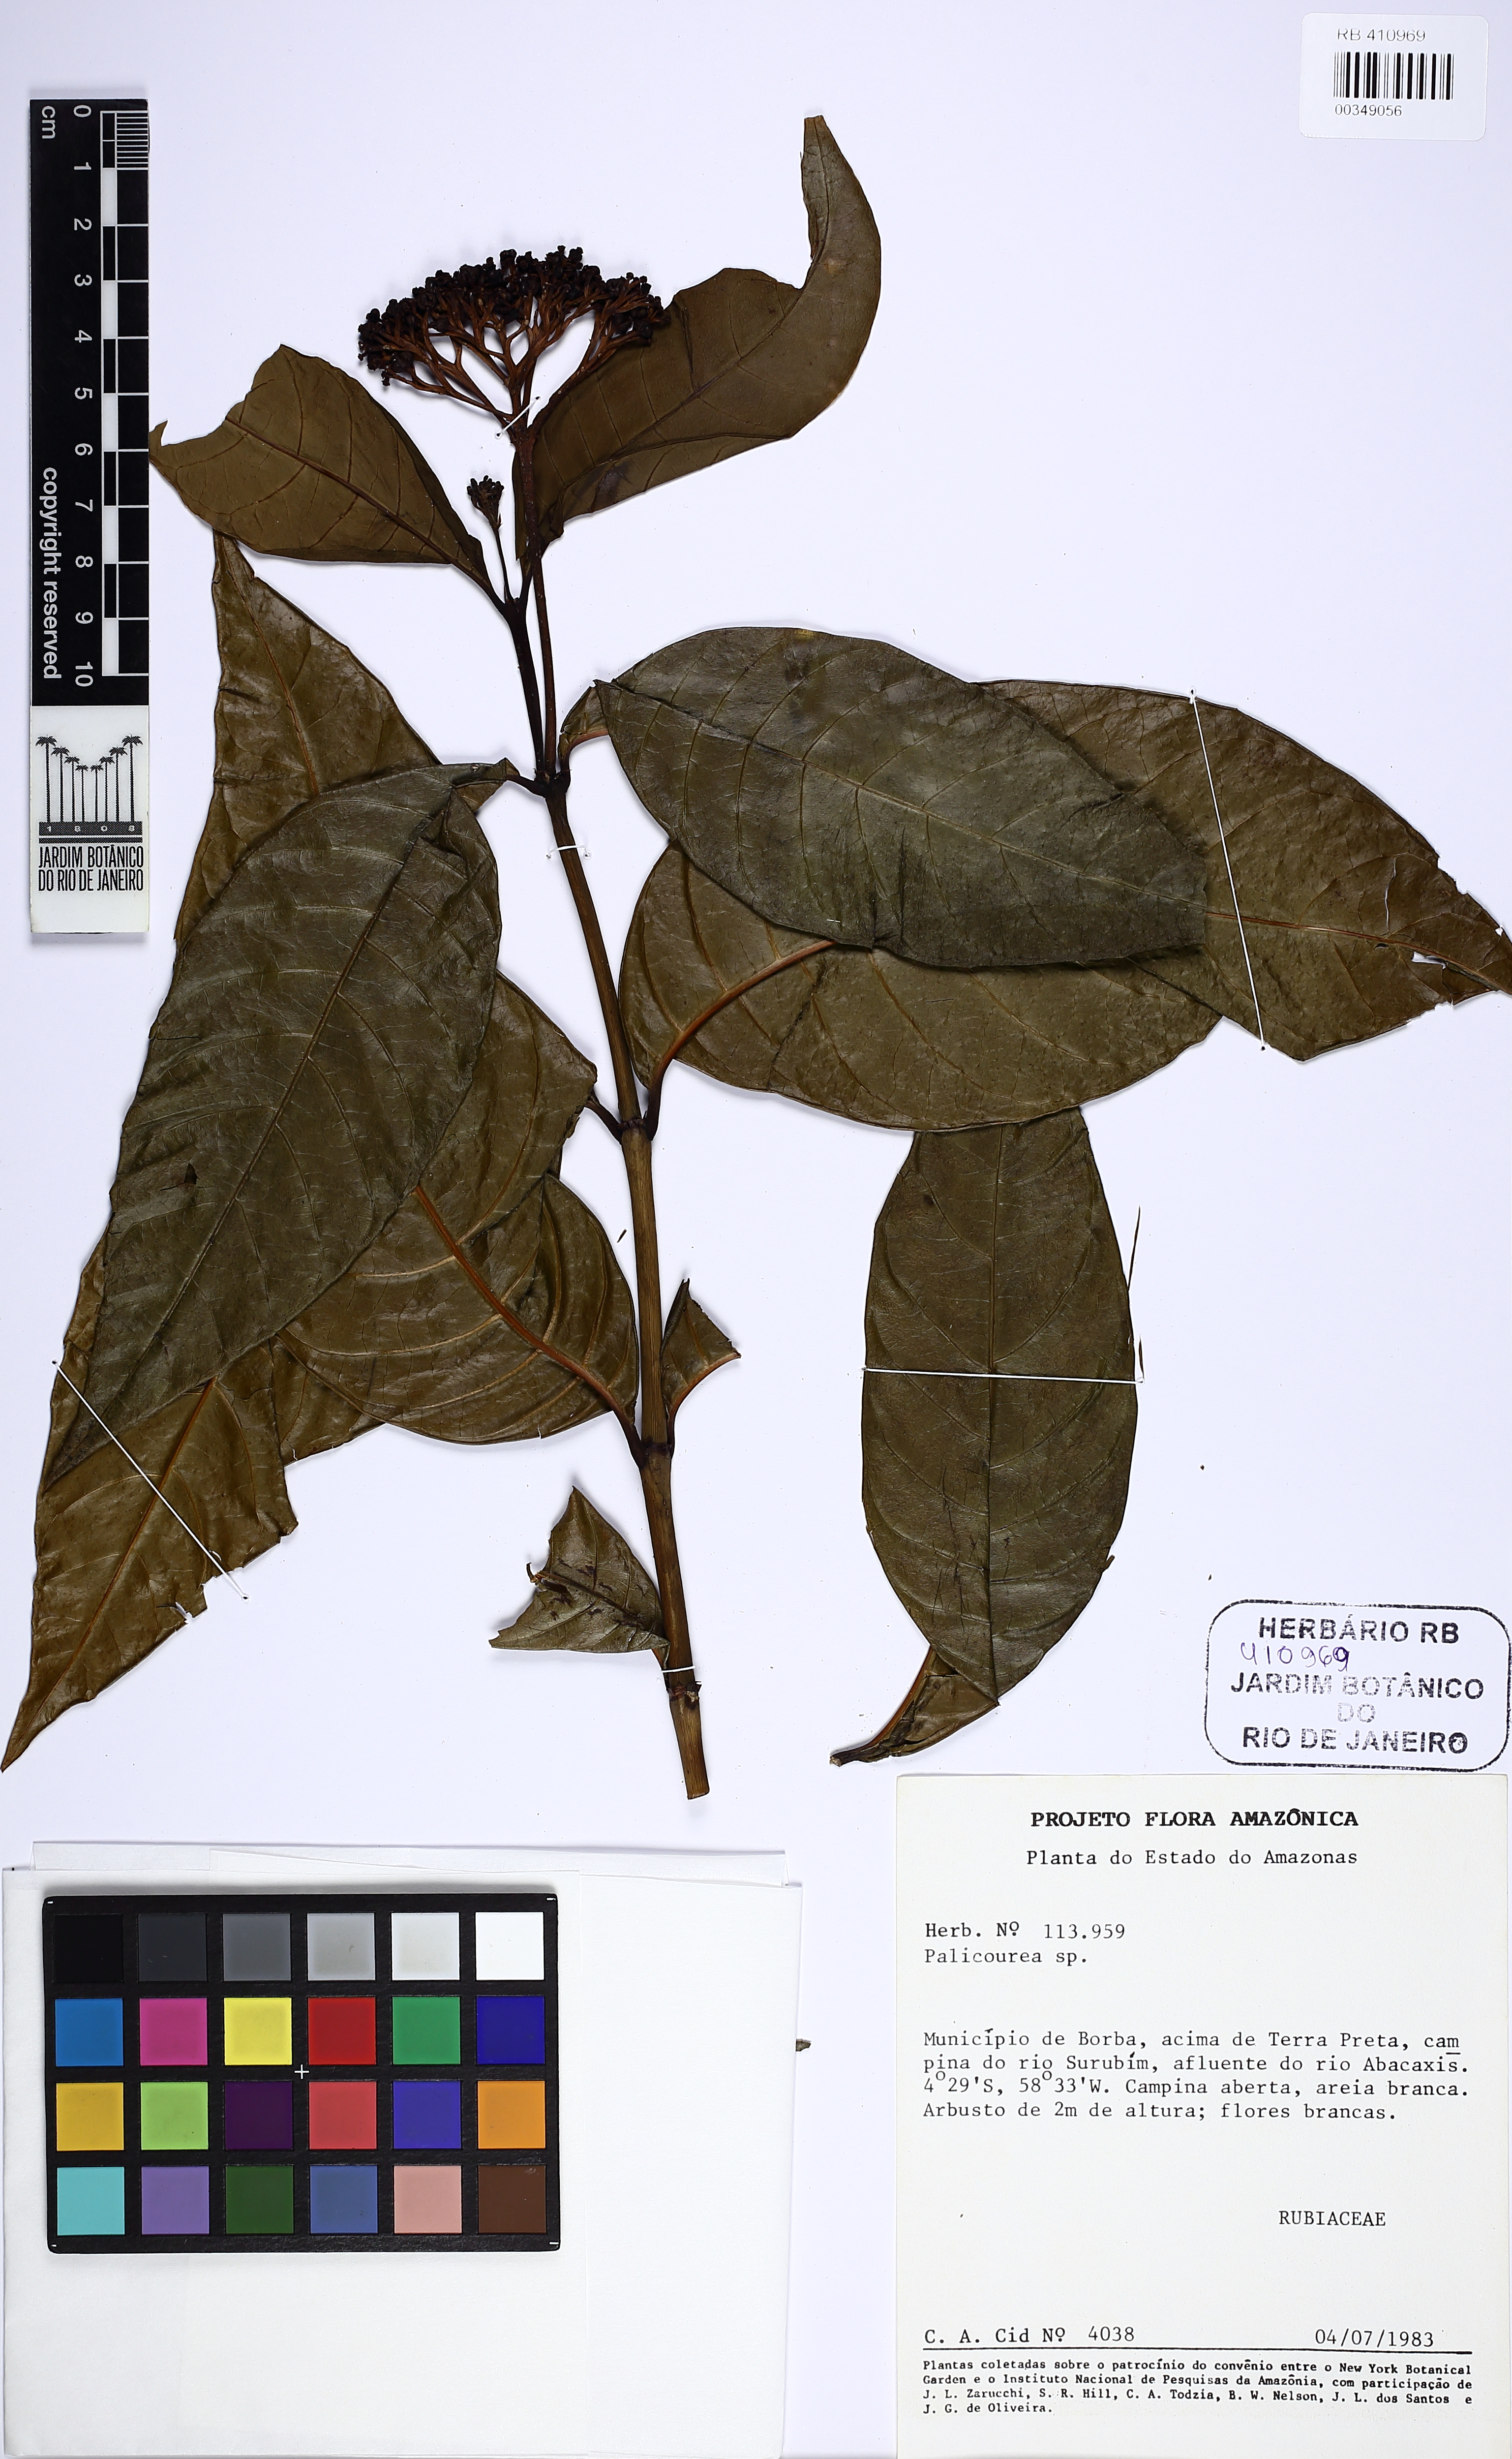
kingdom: Plantae
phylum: Tracheophyta
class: Magnoliopsida
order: Gentianales
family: Rubiaceae
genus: Palicourea
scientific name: Palicourea
